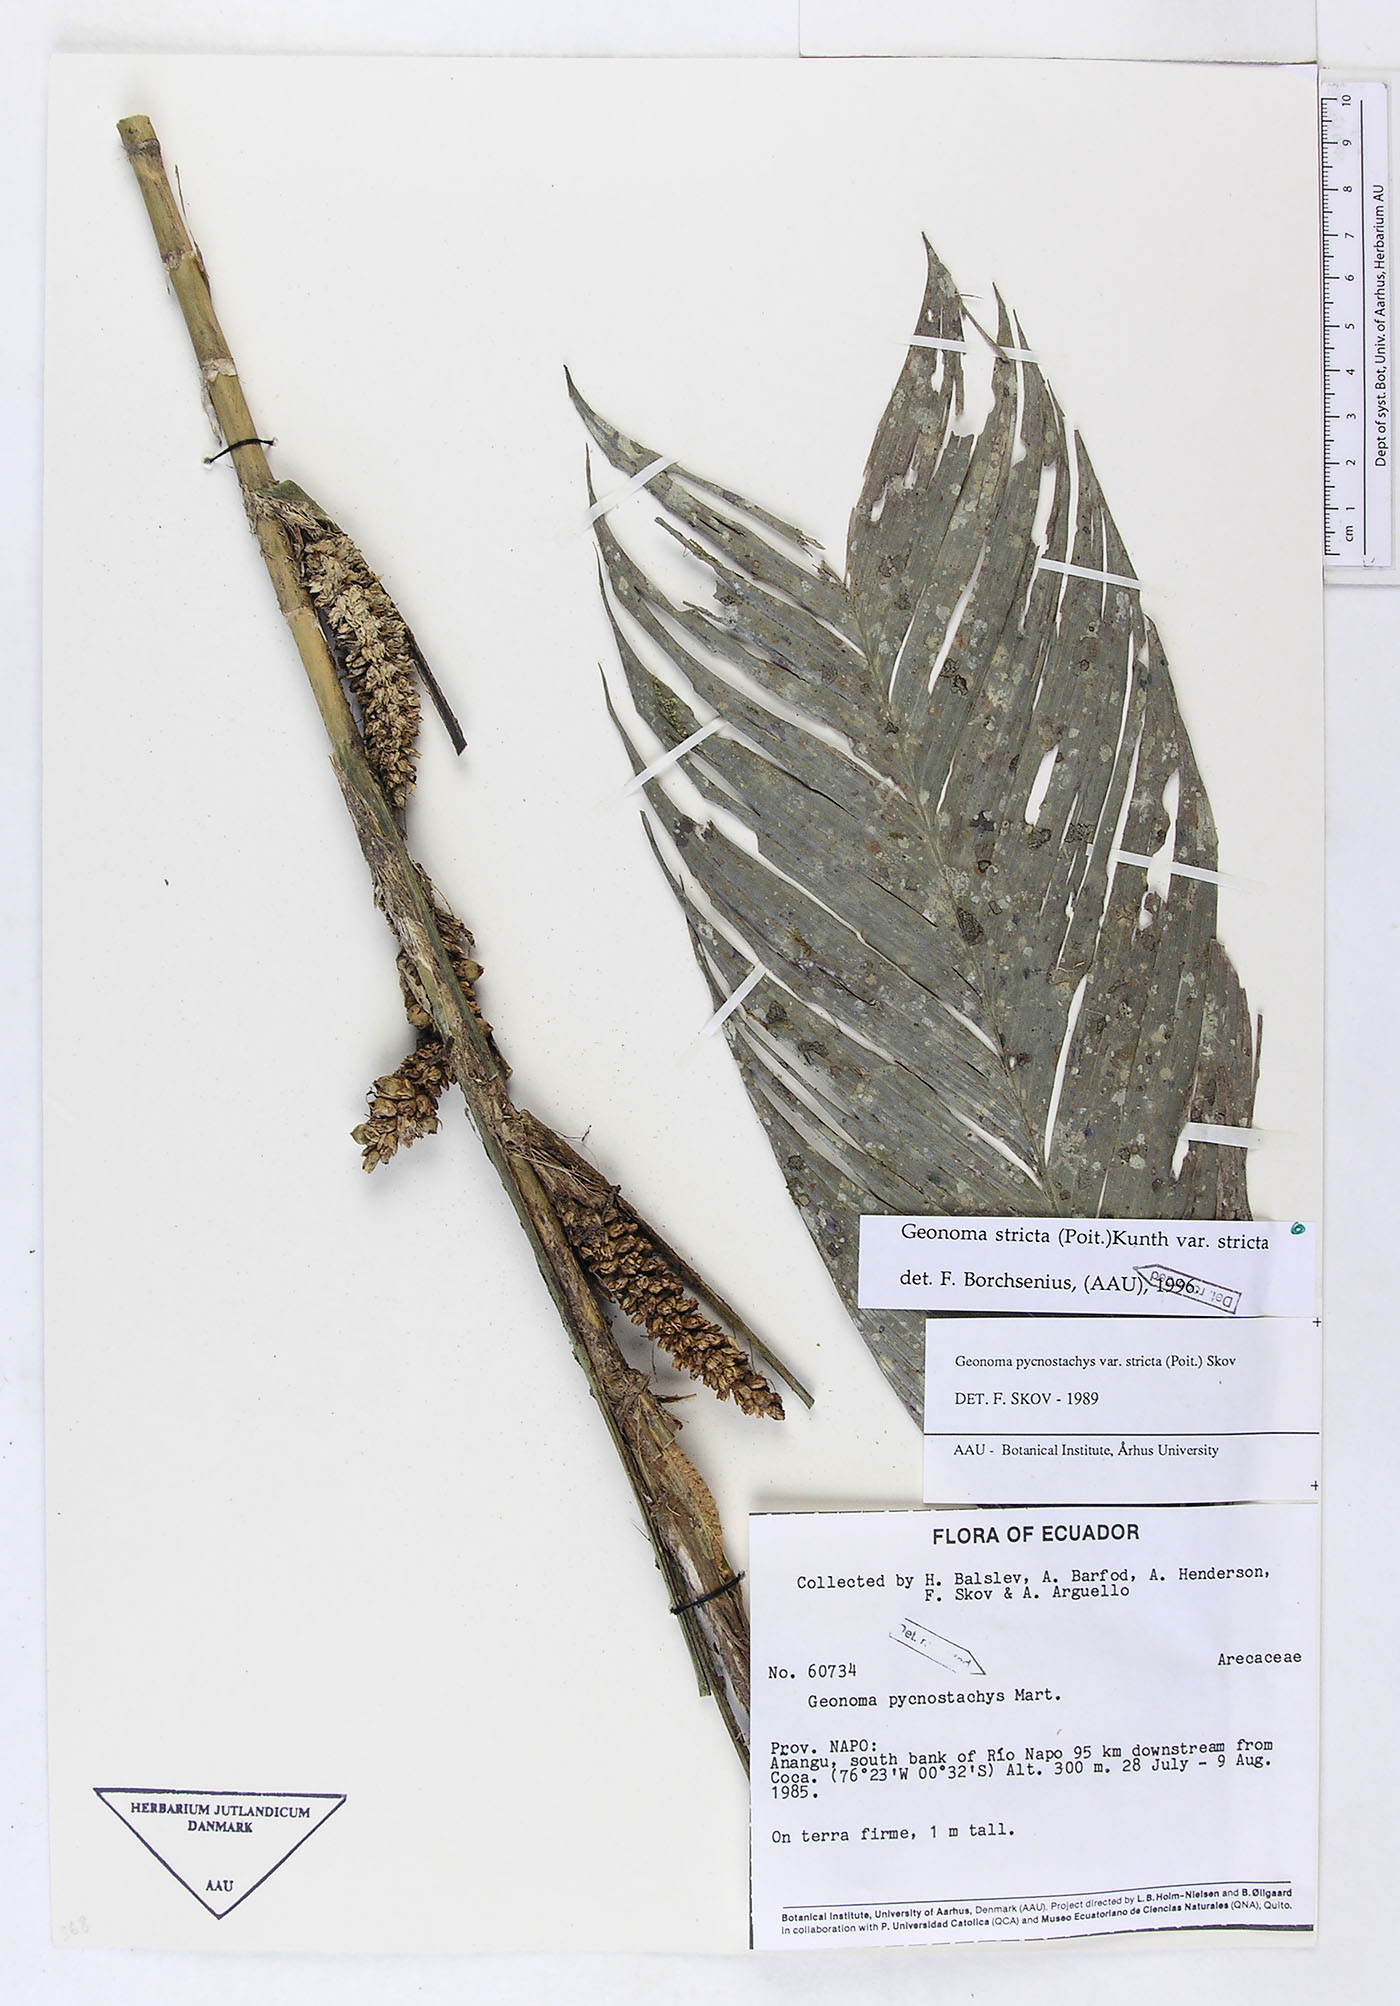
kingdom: Plantae
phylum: Tracheophyta
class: Liliopsida
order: Arecales
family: Arecaceae
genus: Geonoma
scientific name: Geonoma stricta
